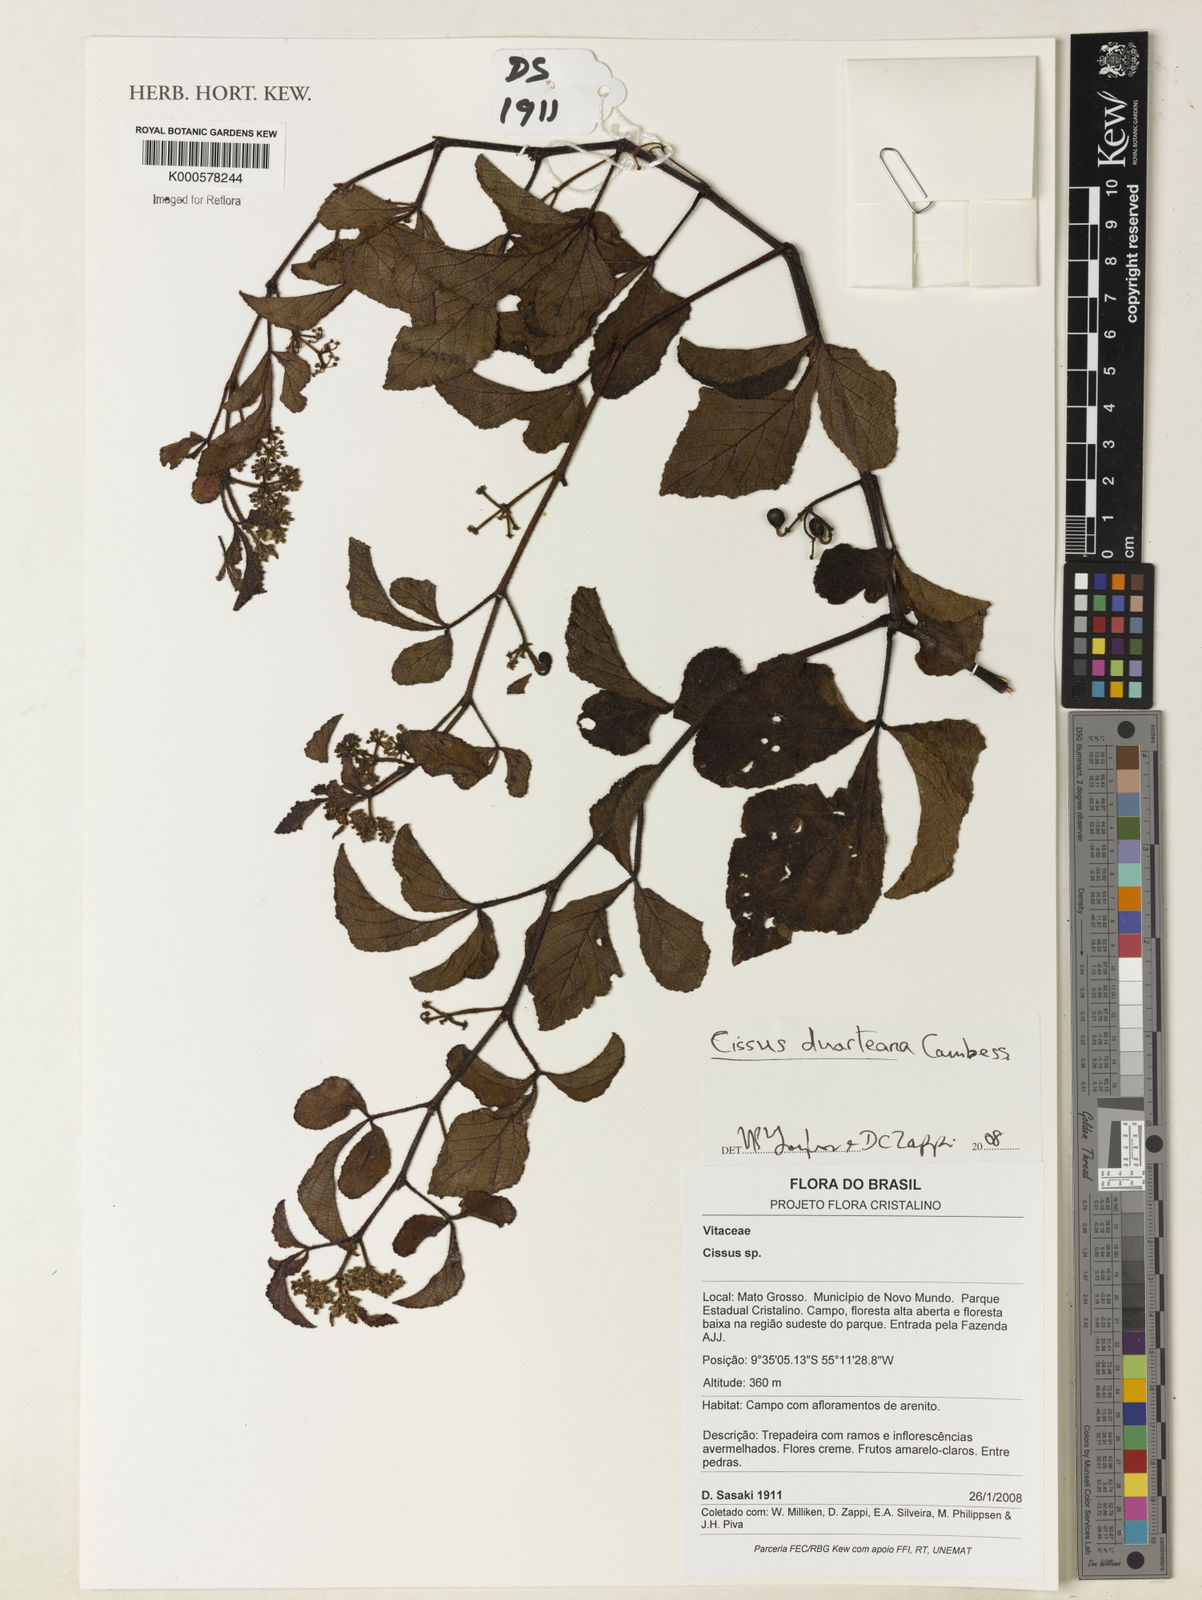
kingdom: Plantae
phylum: Tracheophyta
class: Magnoliopsida
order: Vitales
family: Vitaceae
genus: Cissus
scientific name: Cissus duarteana
